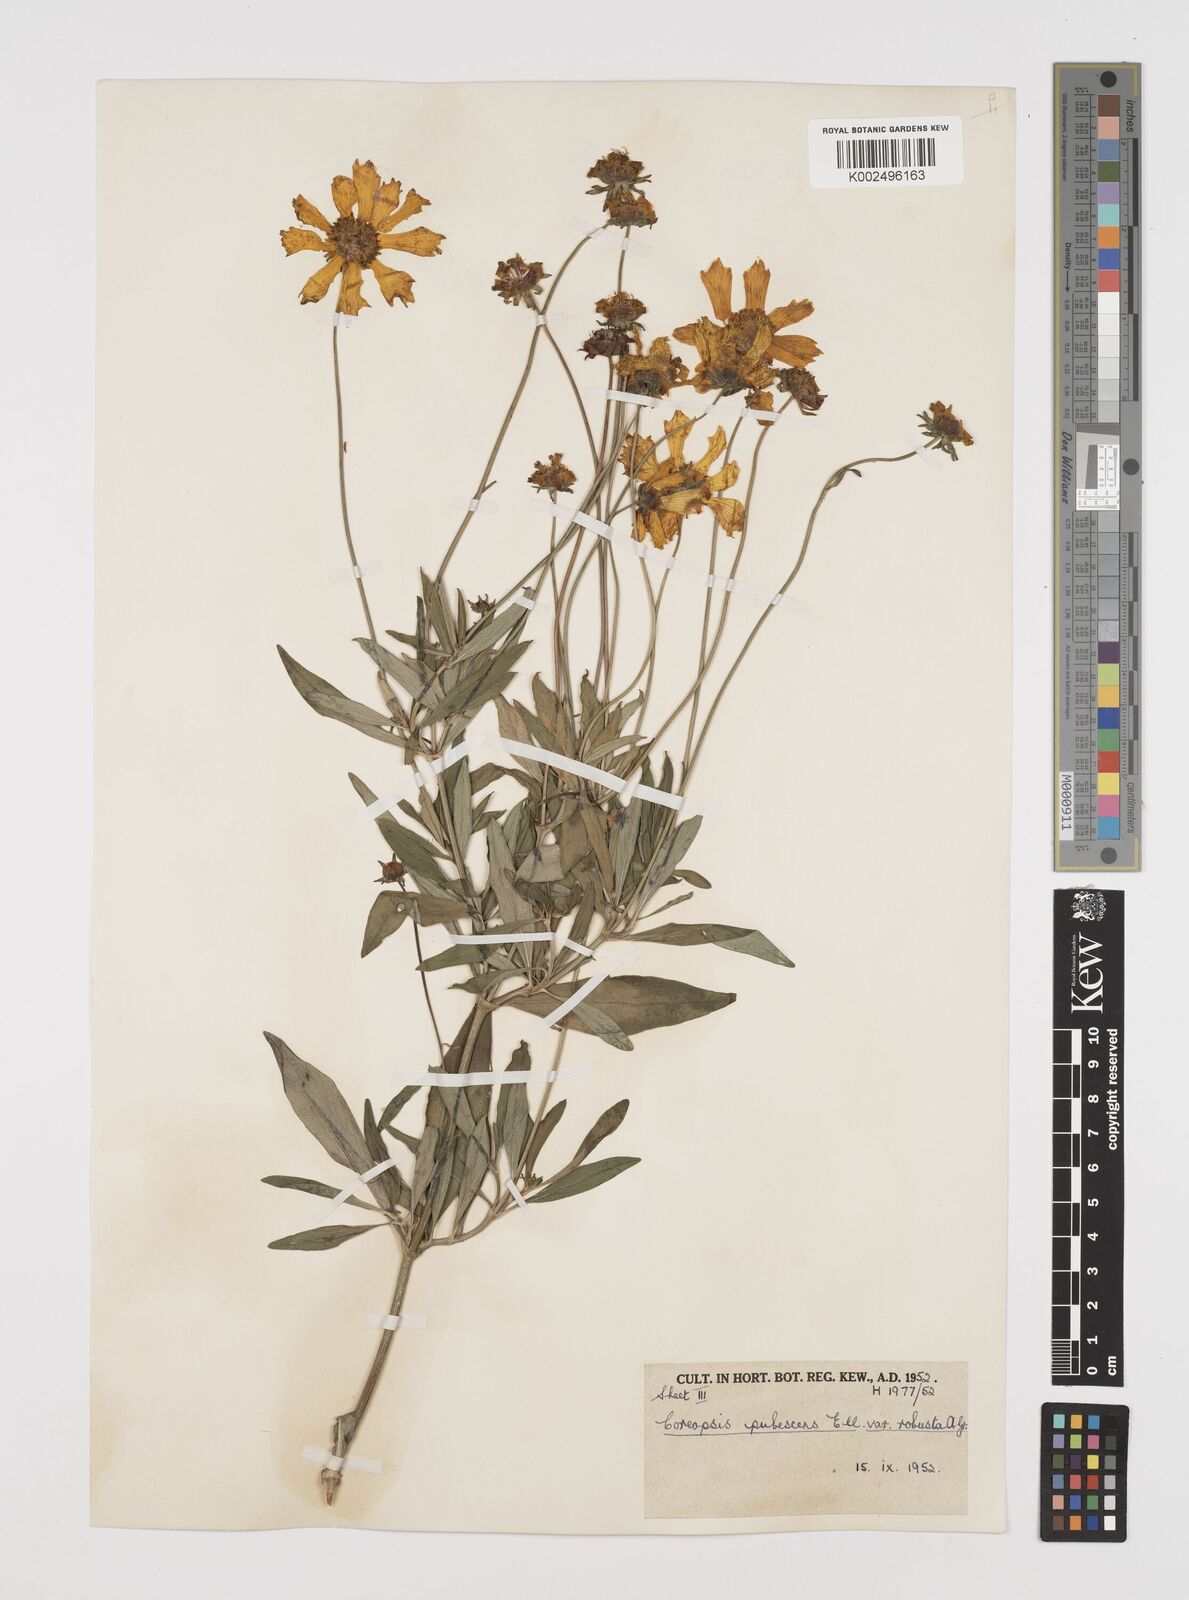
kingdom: Plantae
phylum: Tracheophyta
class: Magnoliopsida
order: Asterales
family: Asteraceae
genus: Coreopsis
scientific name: Coreopsis pubescens
